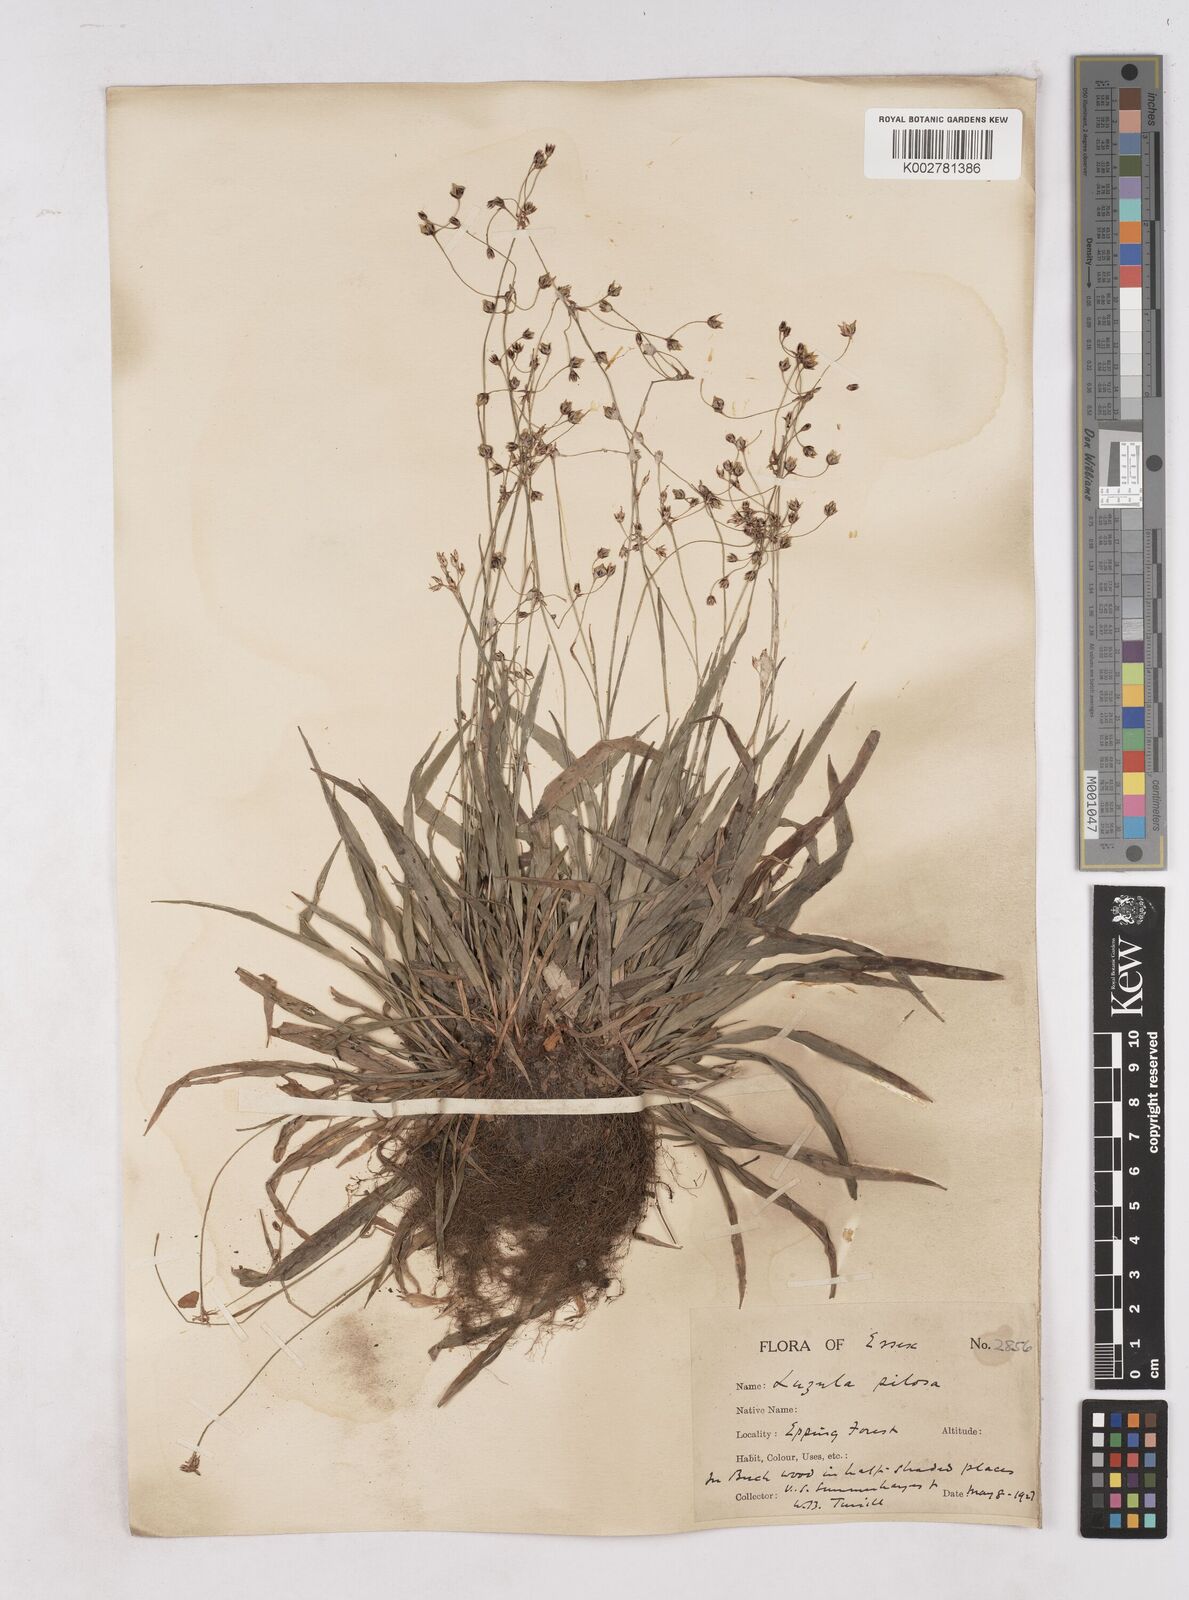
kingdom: Plantae
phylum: Tracheophyta
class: Liliopsida
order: Poales
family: Juncaceae
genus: Luzula
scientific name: Luzula pilosa
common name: Hairy wood-rush
